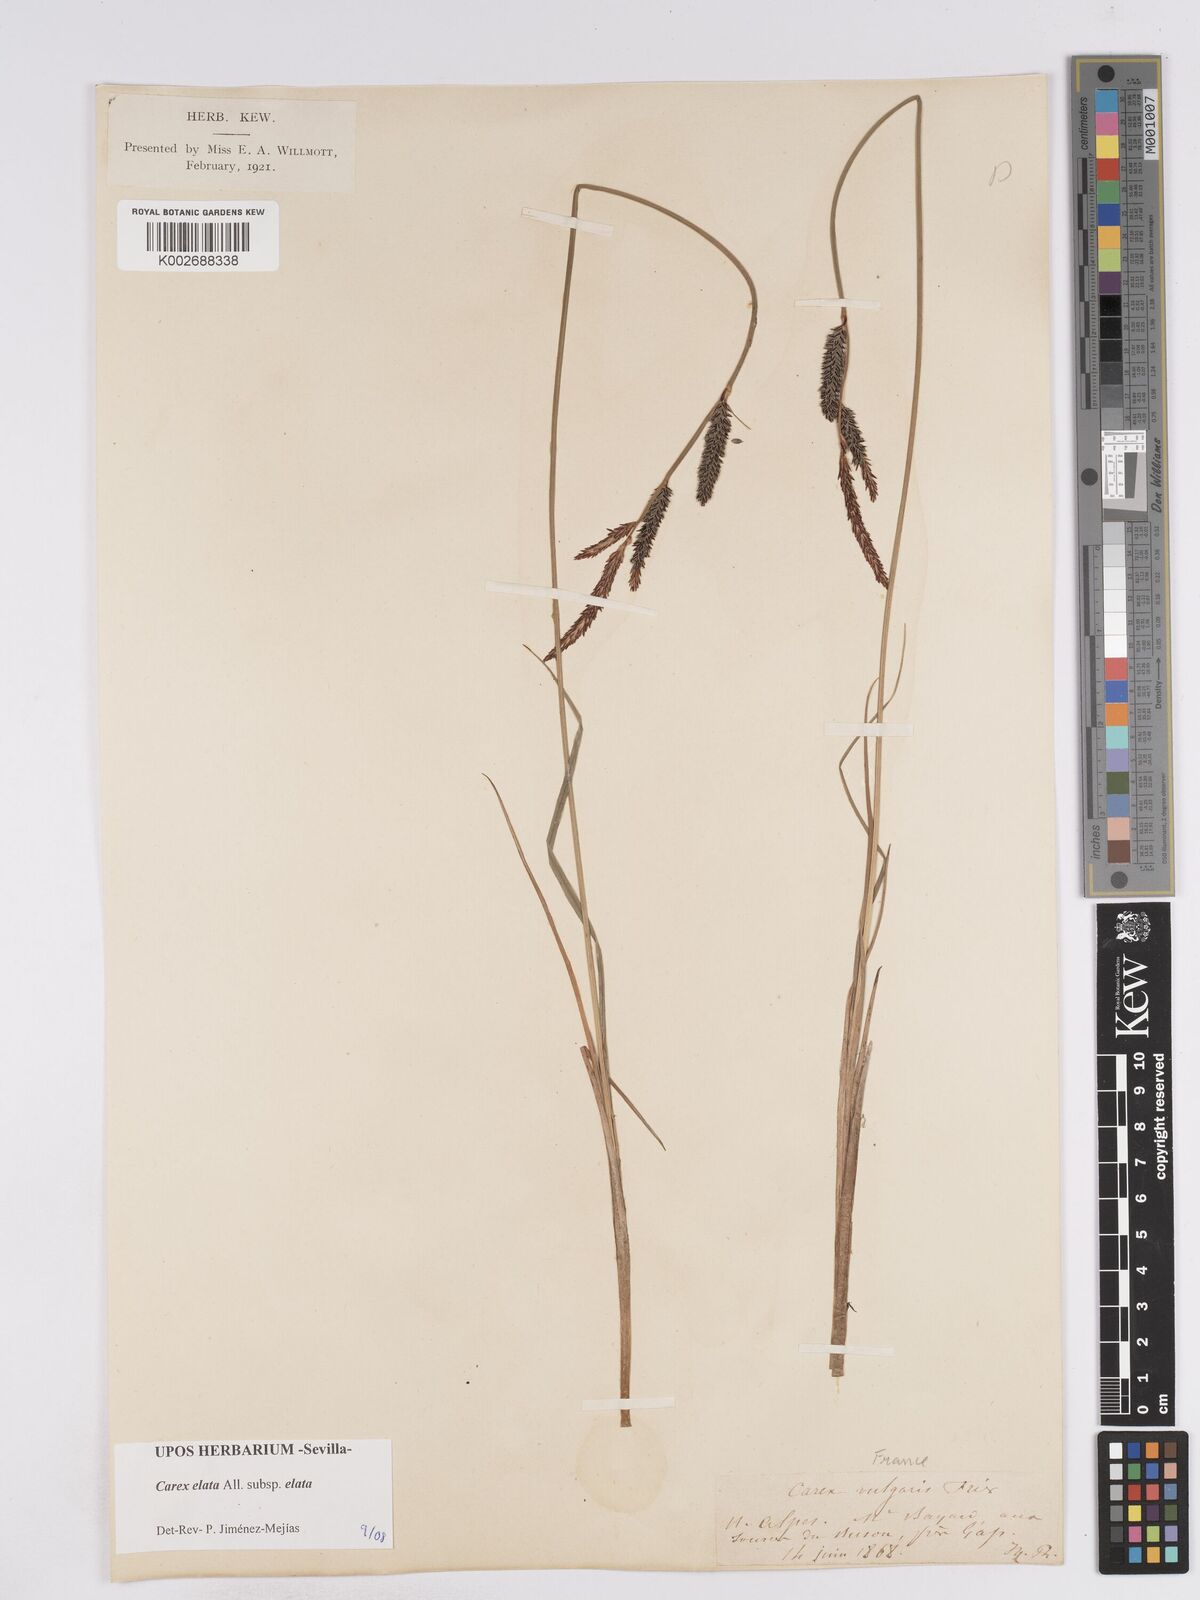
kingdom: Plantae
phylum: Tracheophyta
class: Liliopsida
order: Poales
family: Cyperaceae
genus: Carex
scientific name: Carex elata
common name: Tufted sedge
